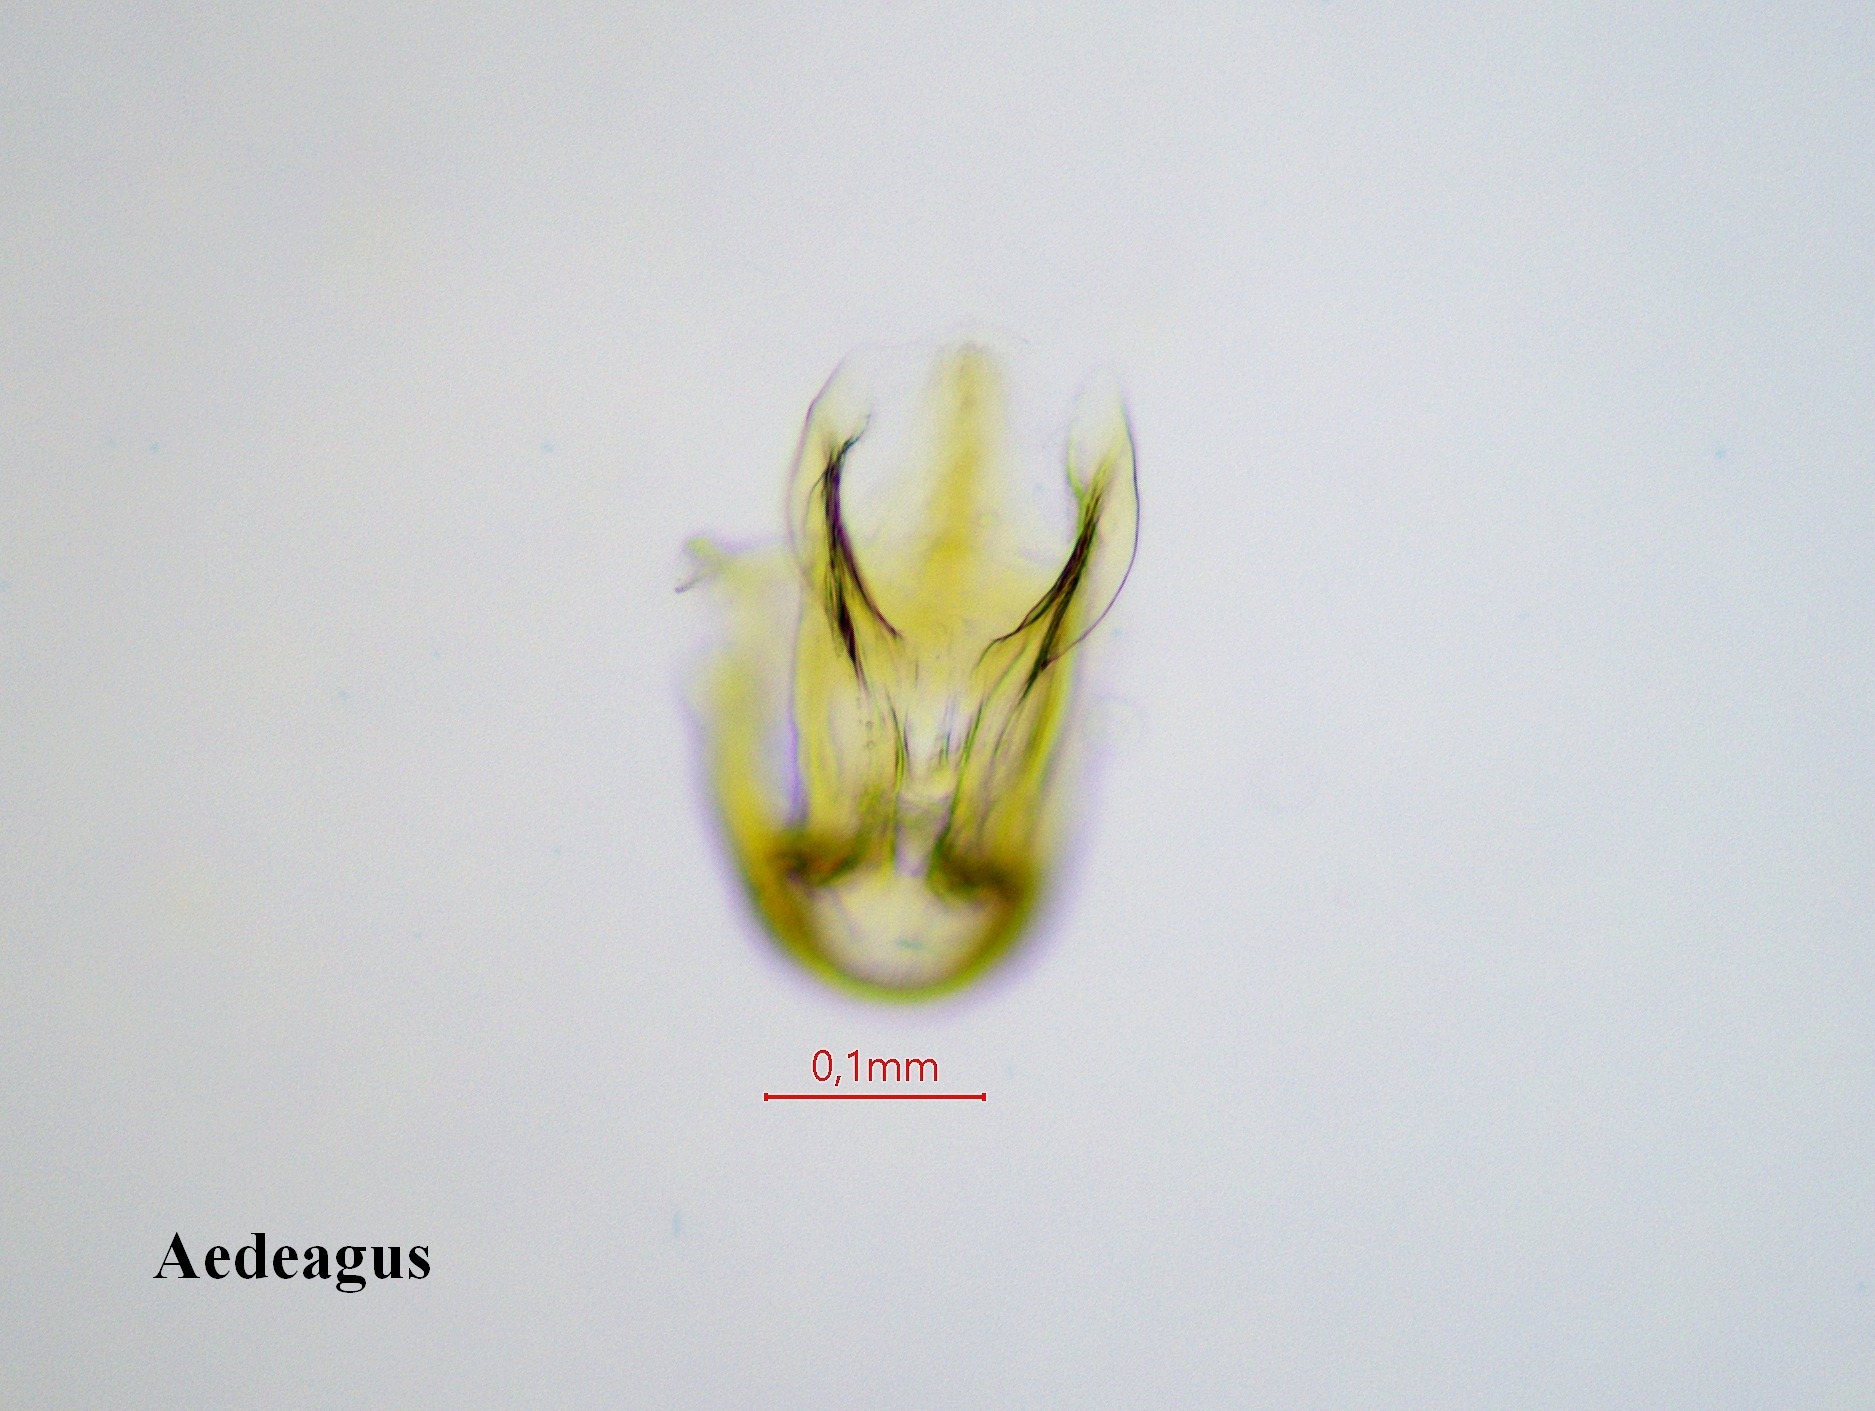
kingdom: Animalia
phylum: Arthropoda
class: Insecta
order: Hemiptera
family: Cicadellidae
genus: Psammotettix
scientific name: Psammotettix confinis
